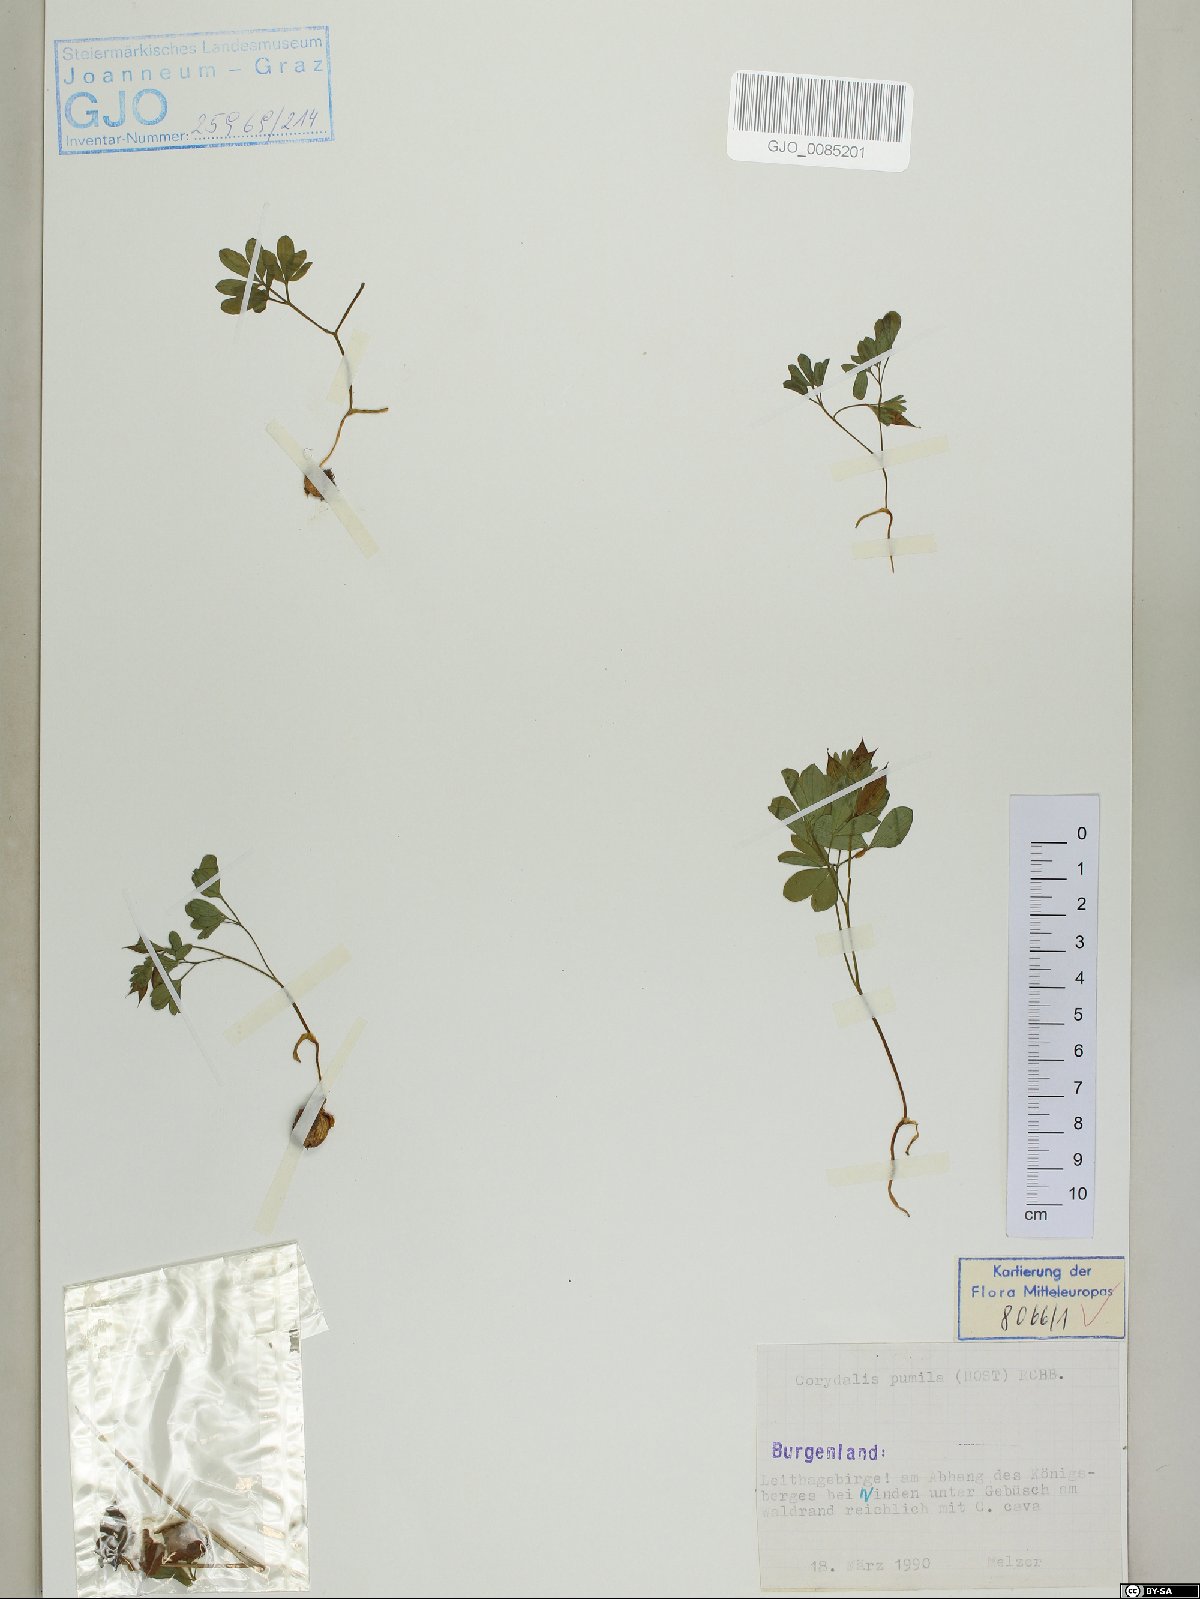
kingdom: Plantae
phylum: Tracheophyta
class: Magnoliopsida
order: Ranunculales
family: Papaveraceae
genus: Corydalis
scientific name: Corydalis pumila
